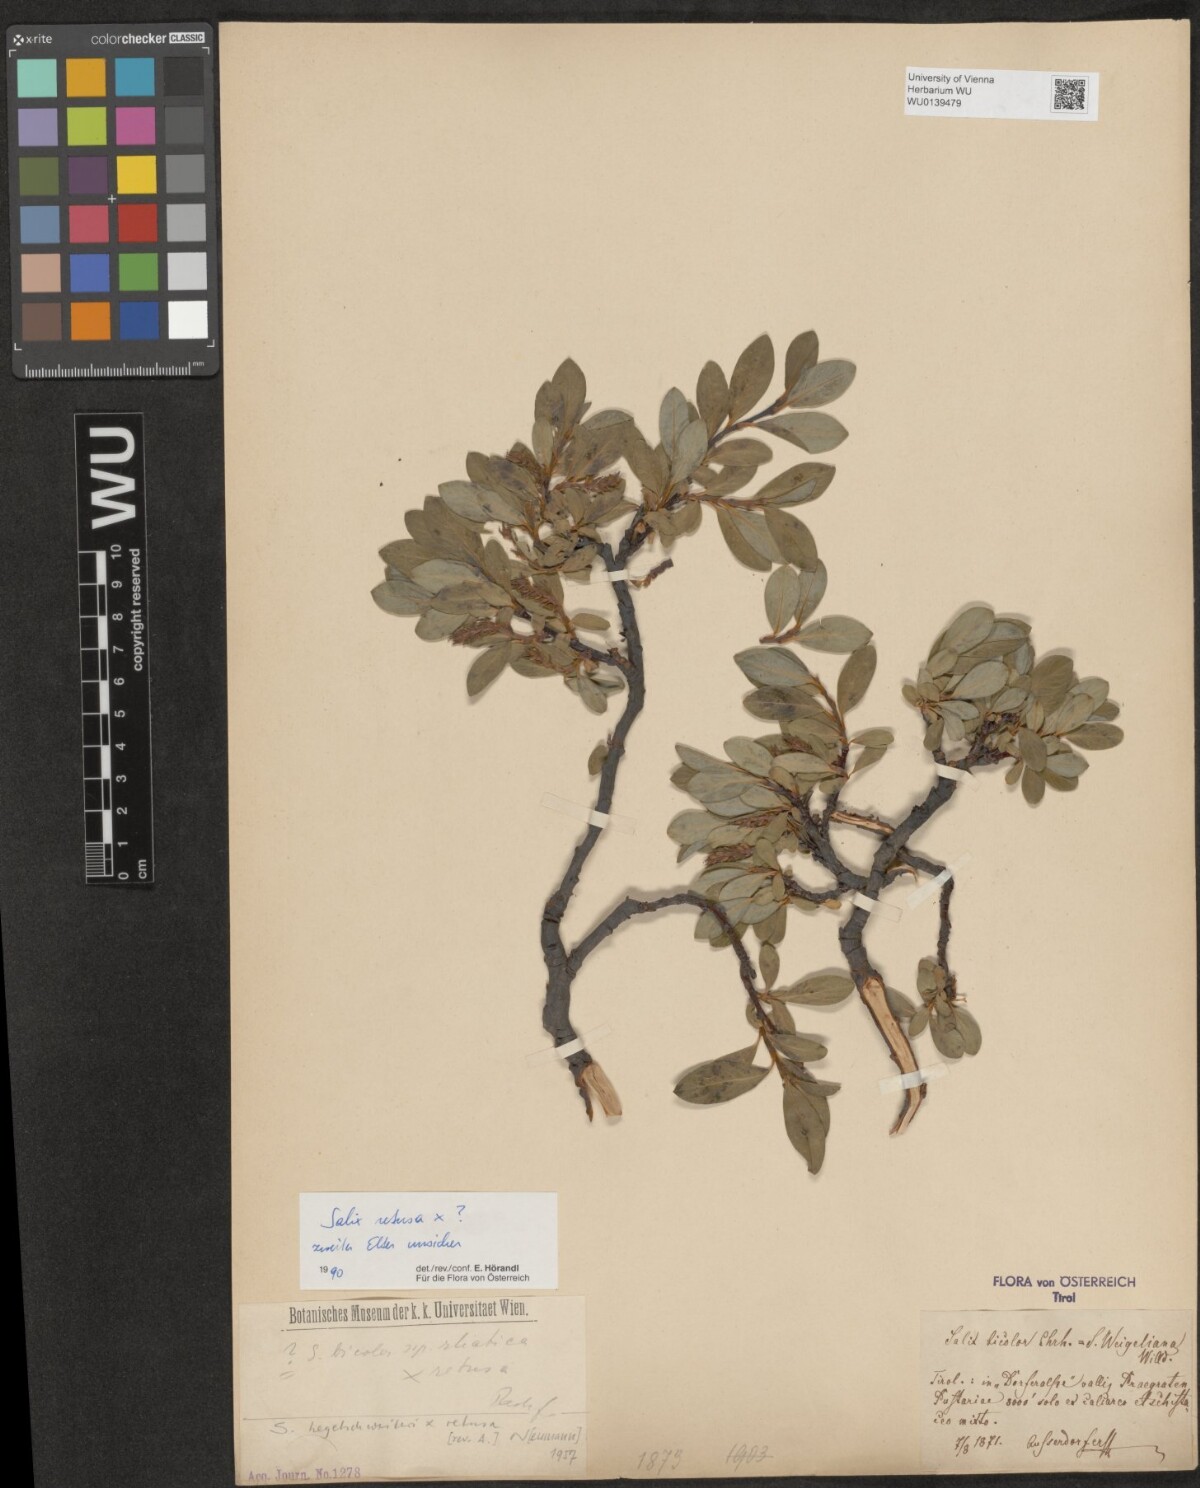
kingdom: Plantae
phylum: Tracheophyta
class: Magnoliopsida
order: Malpighiales
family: Salicaceae
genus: Salix
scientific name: Salix retusa
